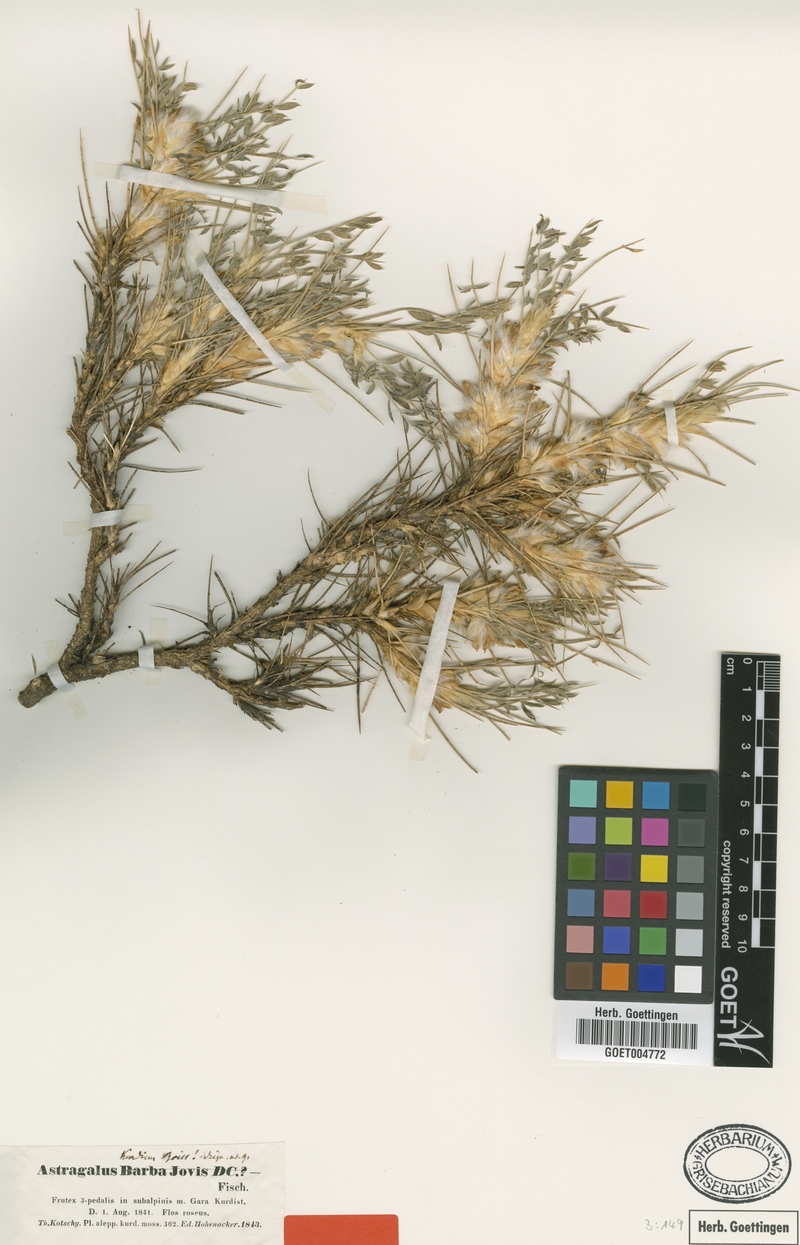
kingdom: Plantae
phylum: Tracheophyta
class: Magnoliopsida
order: Fabales
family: Fabaceae
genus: Astragalus
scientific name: Astragalus kurdicus
